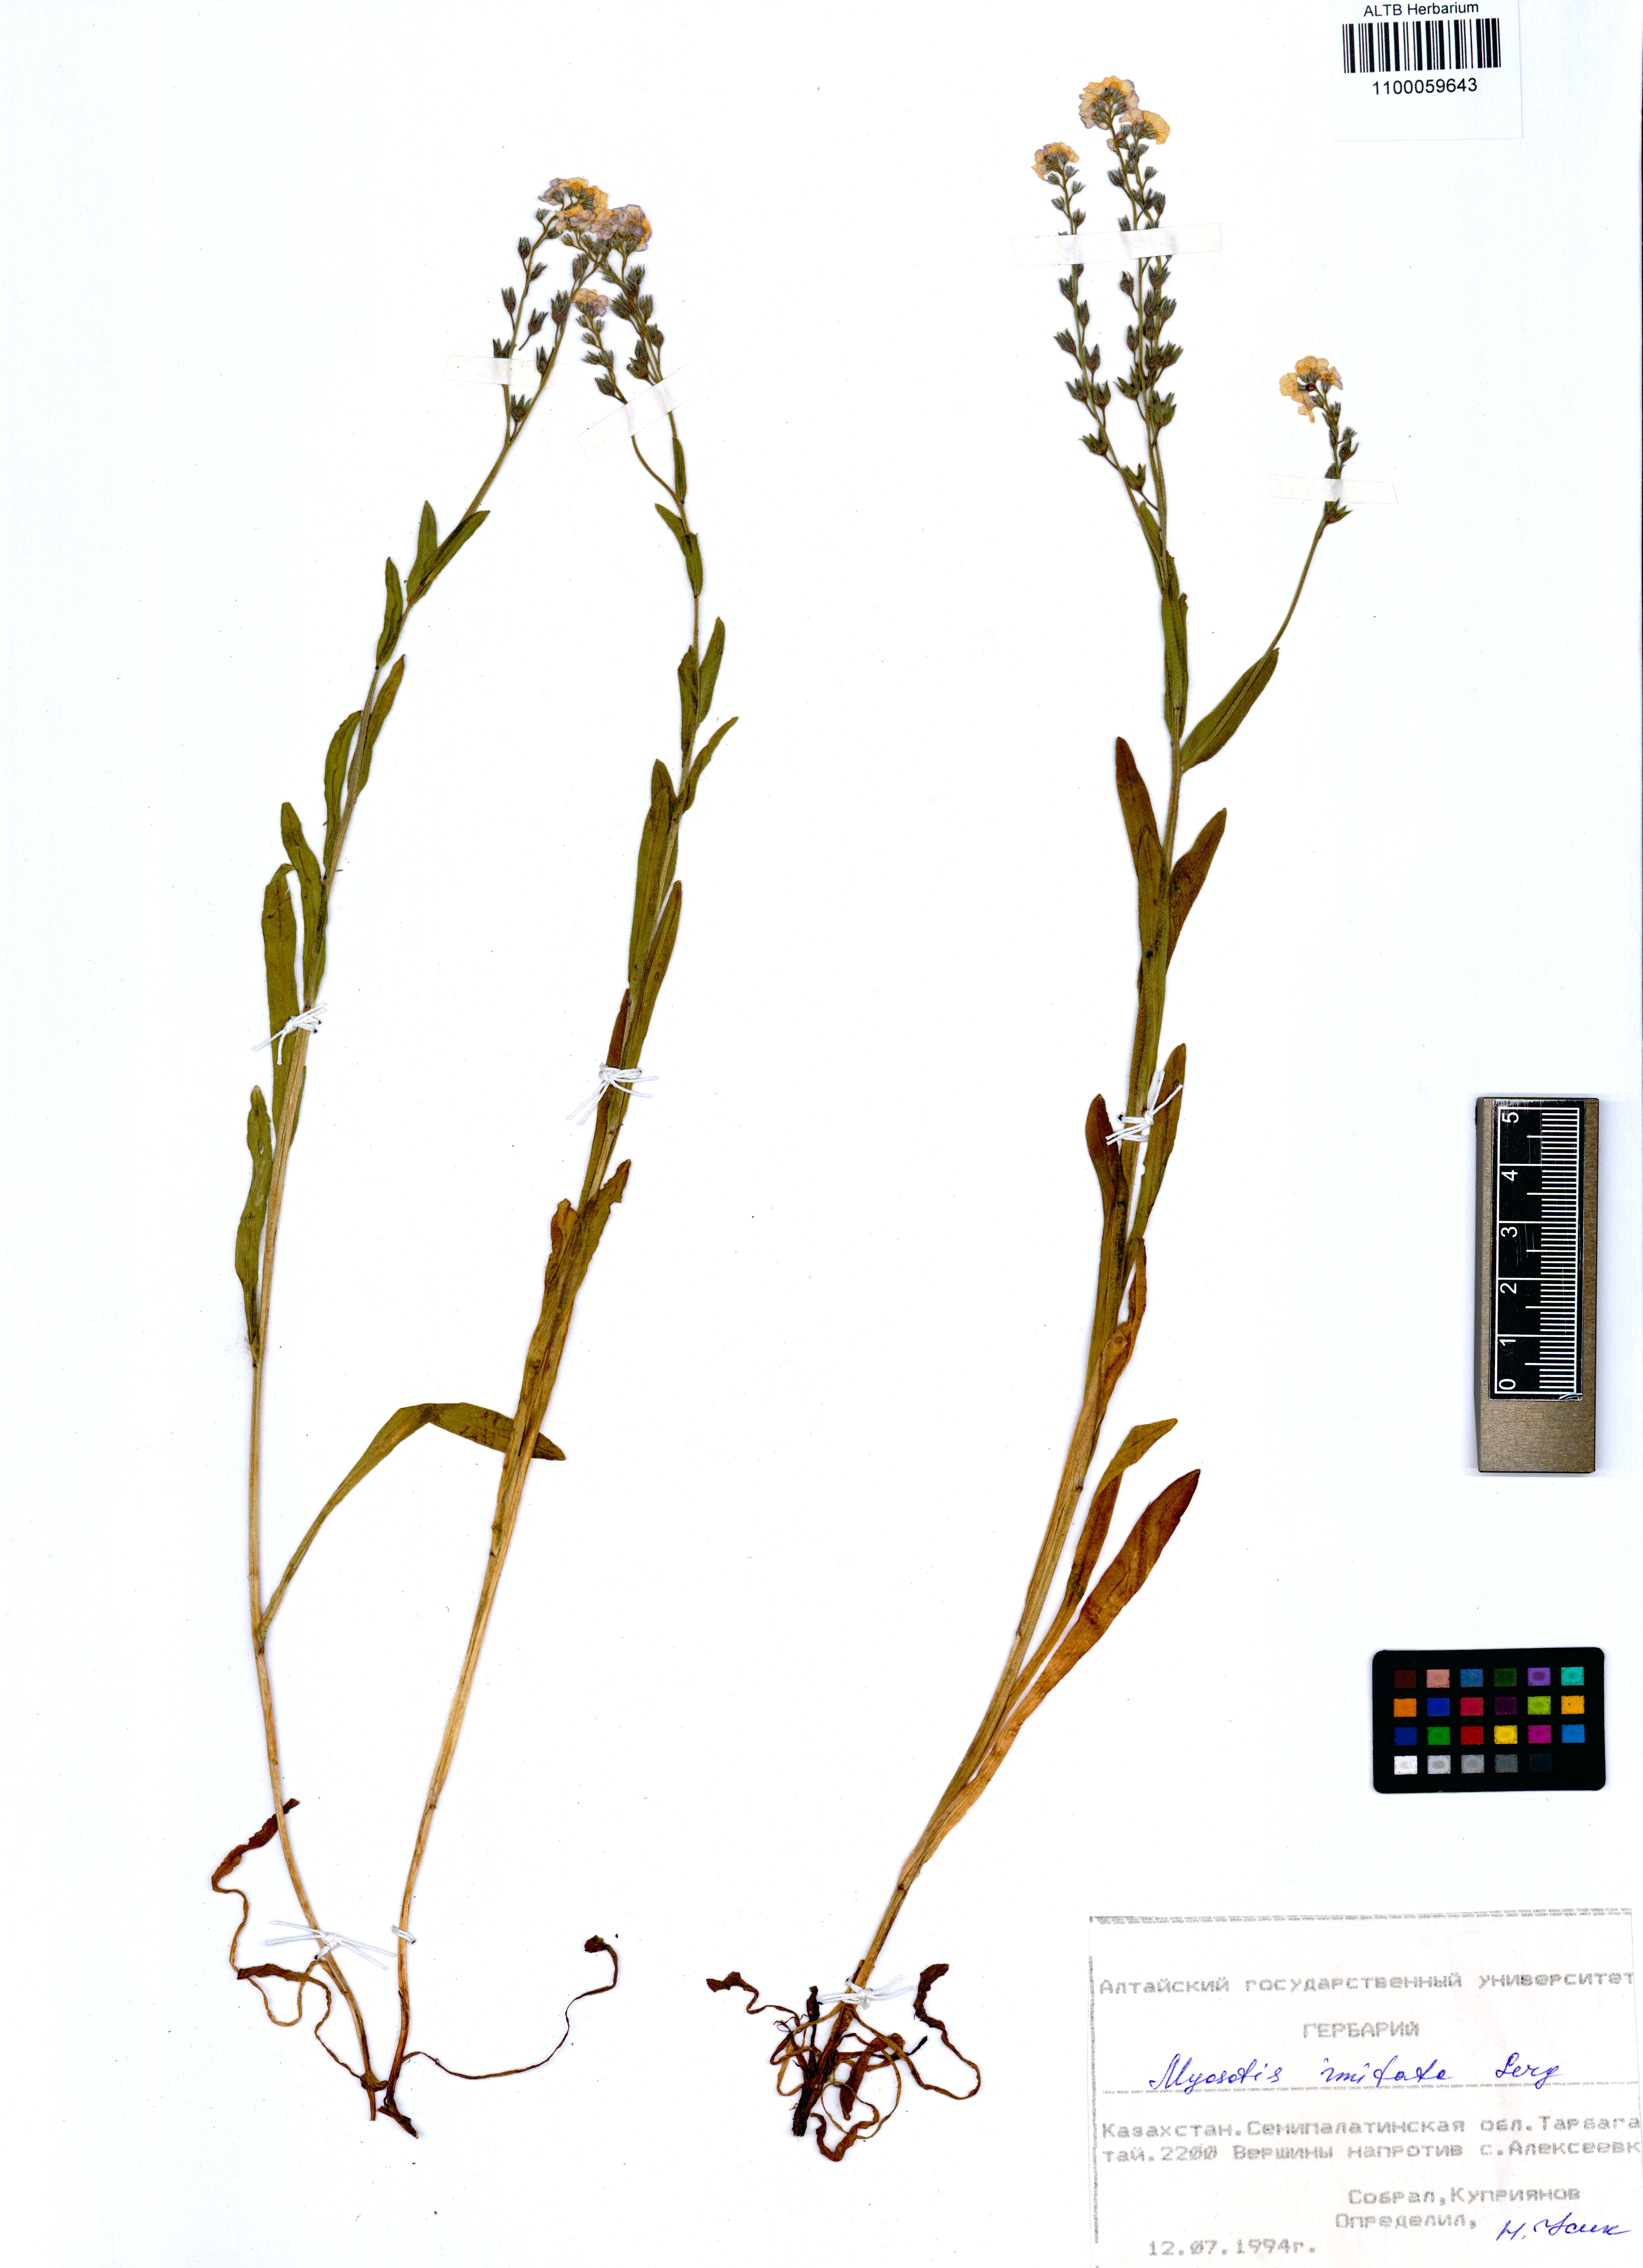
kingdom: Plantae
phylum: Tracheophyta
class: Magnoliopsida
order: Boraginales
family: Boraginaceae
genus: Myosotis
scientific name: Myosotis imitata
